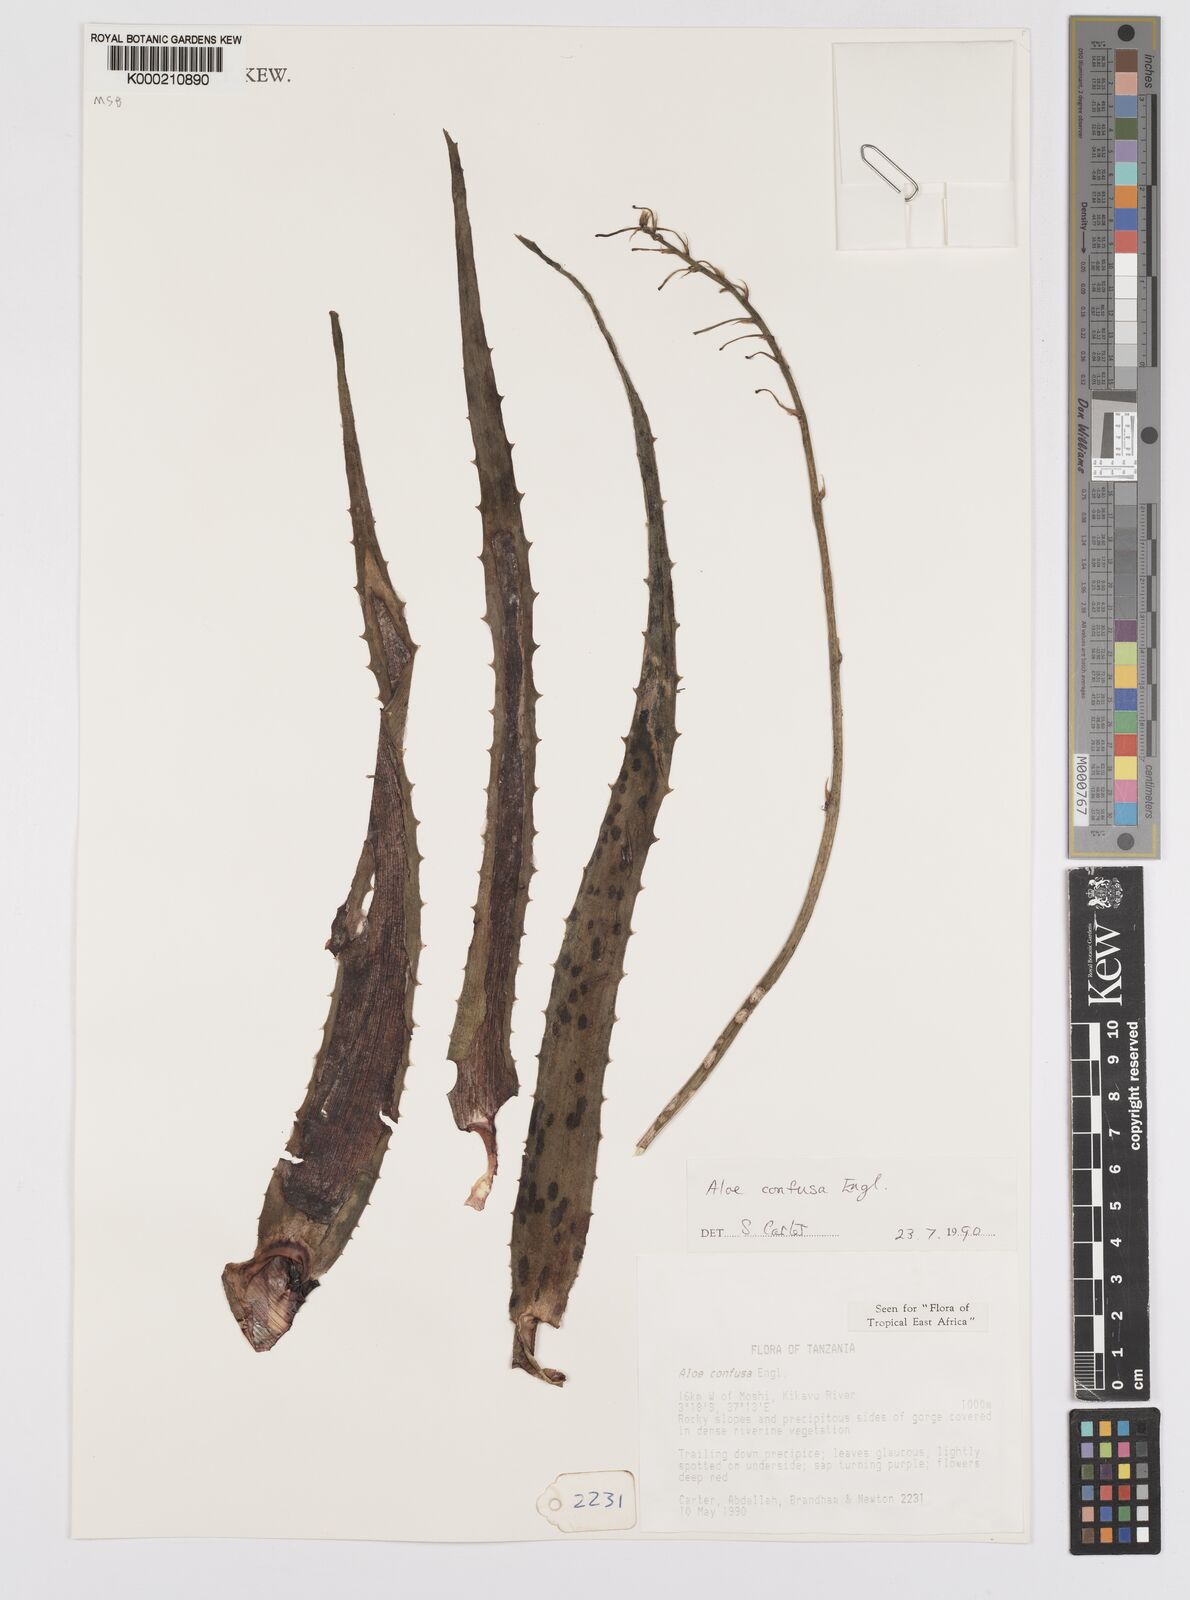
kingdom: Plantae
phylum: Tracheophyta
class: Liliopsida
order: Asparagales
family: Asphodelaceae
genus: Aloe
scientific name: Aloe confusa
